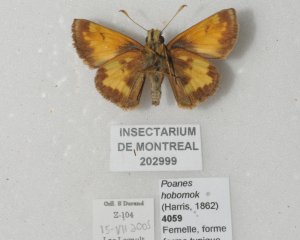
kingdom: Animalia
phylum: Arthropoda
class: Insecta
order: Lepidoptera
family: Hesperiidae
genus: Lon
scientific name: Lon hobomok
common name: Hobomok Skipper
